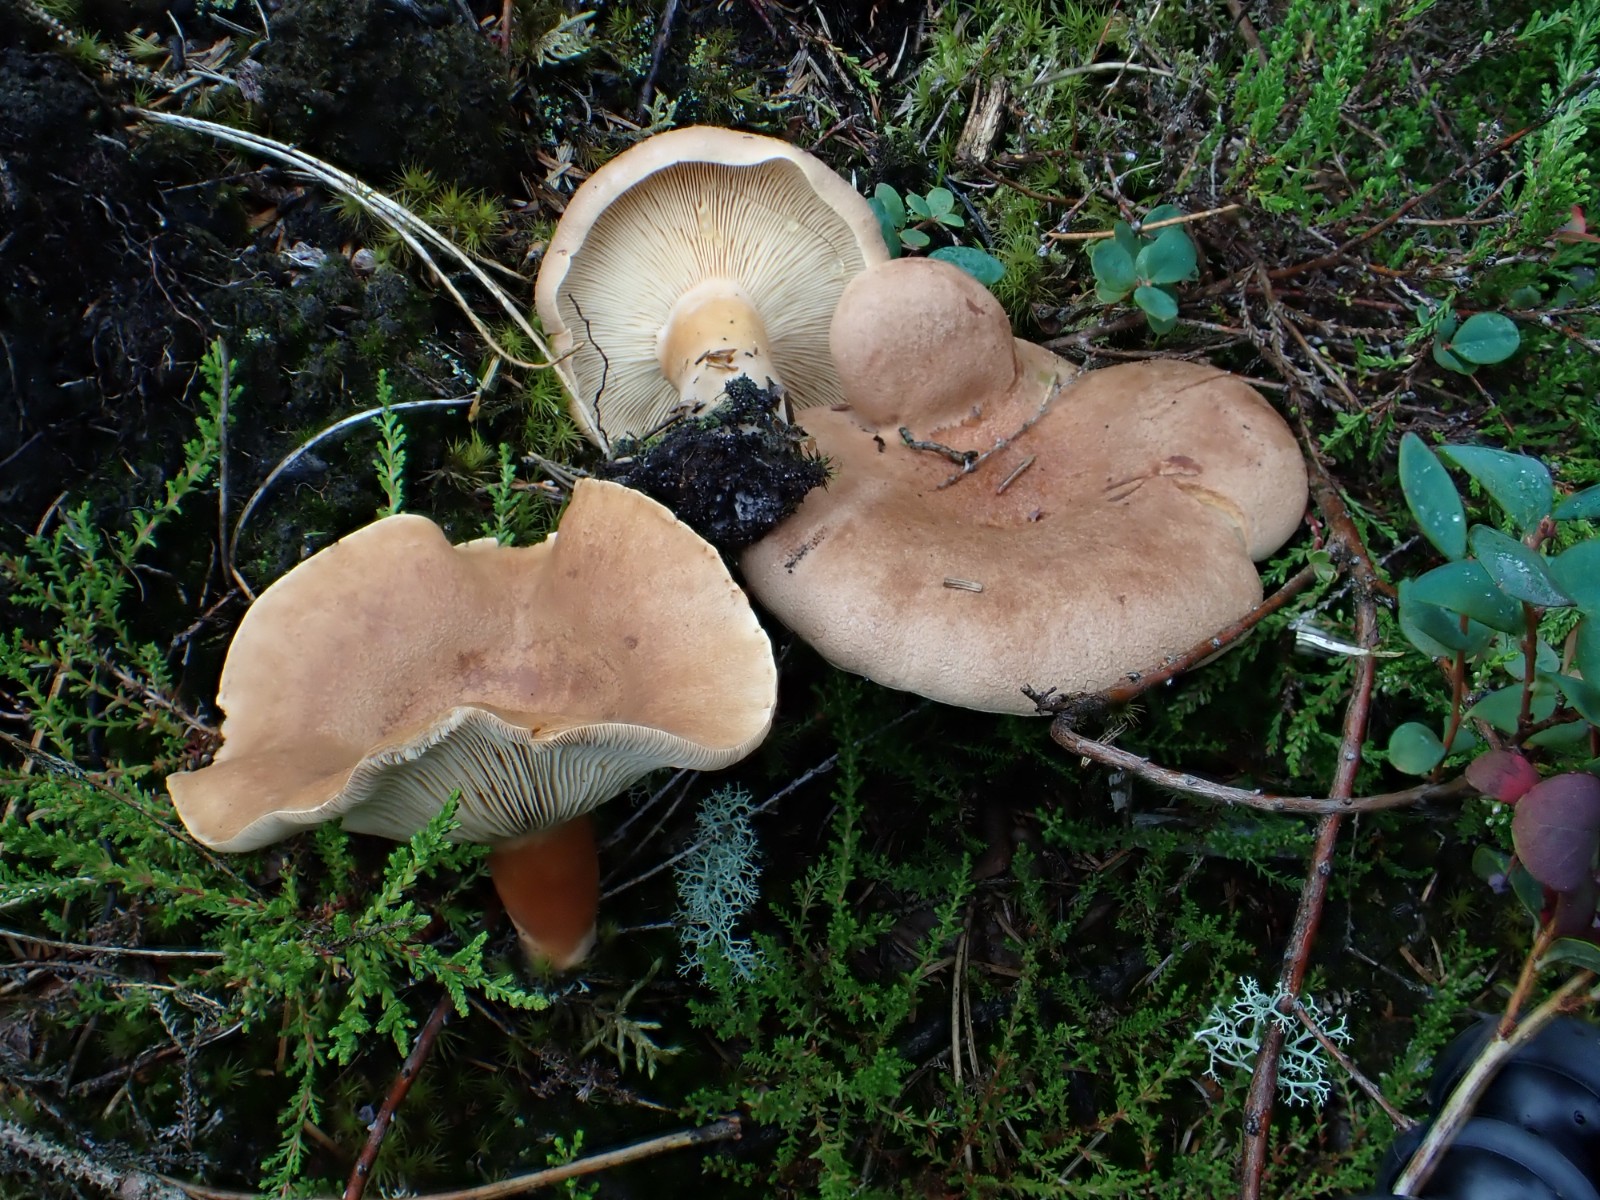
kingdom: Fungi
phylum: Basidiomycota
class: Agaricomycetes
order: Russulales
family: Russulaceae
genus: Lactarius
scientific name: Lactarius helvus
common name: mose-mælkehat
